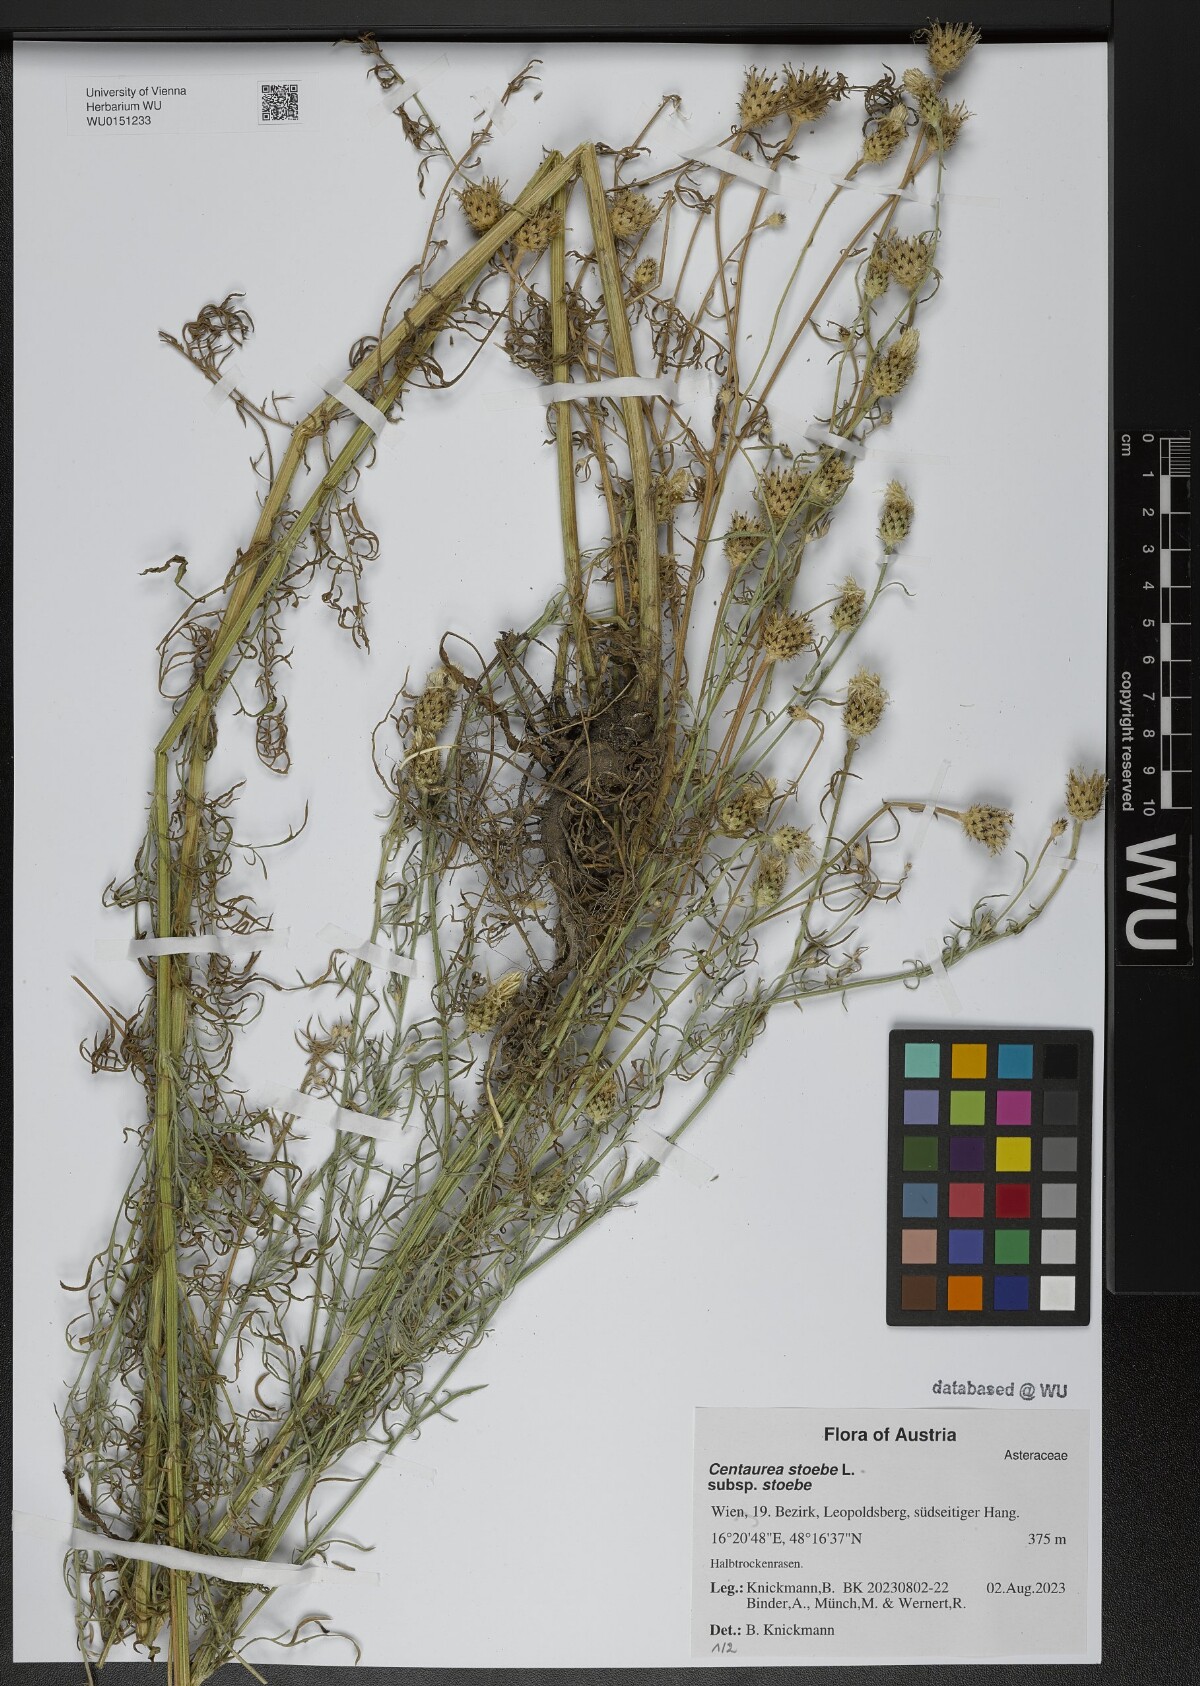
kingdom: Plantae
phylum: Tracheophyta
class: Magnoliopsida
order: Asterales
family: Asteraceae
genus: Centaurea
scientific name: Centaurea stoebe
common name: Spotted knapweed
